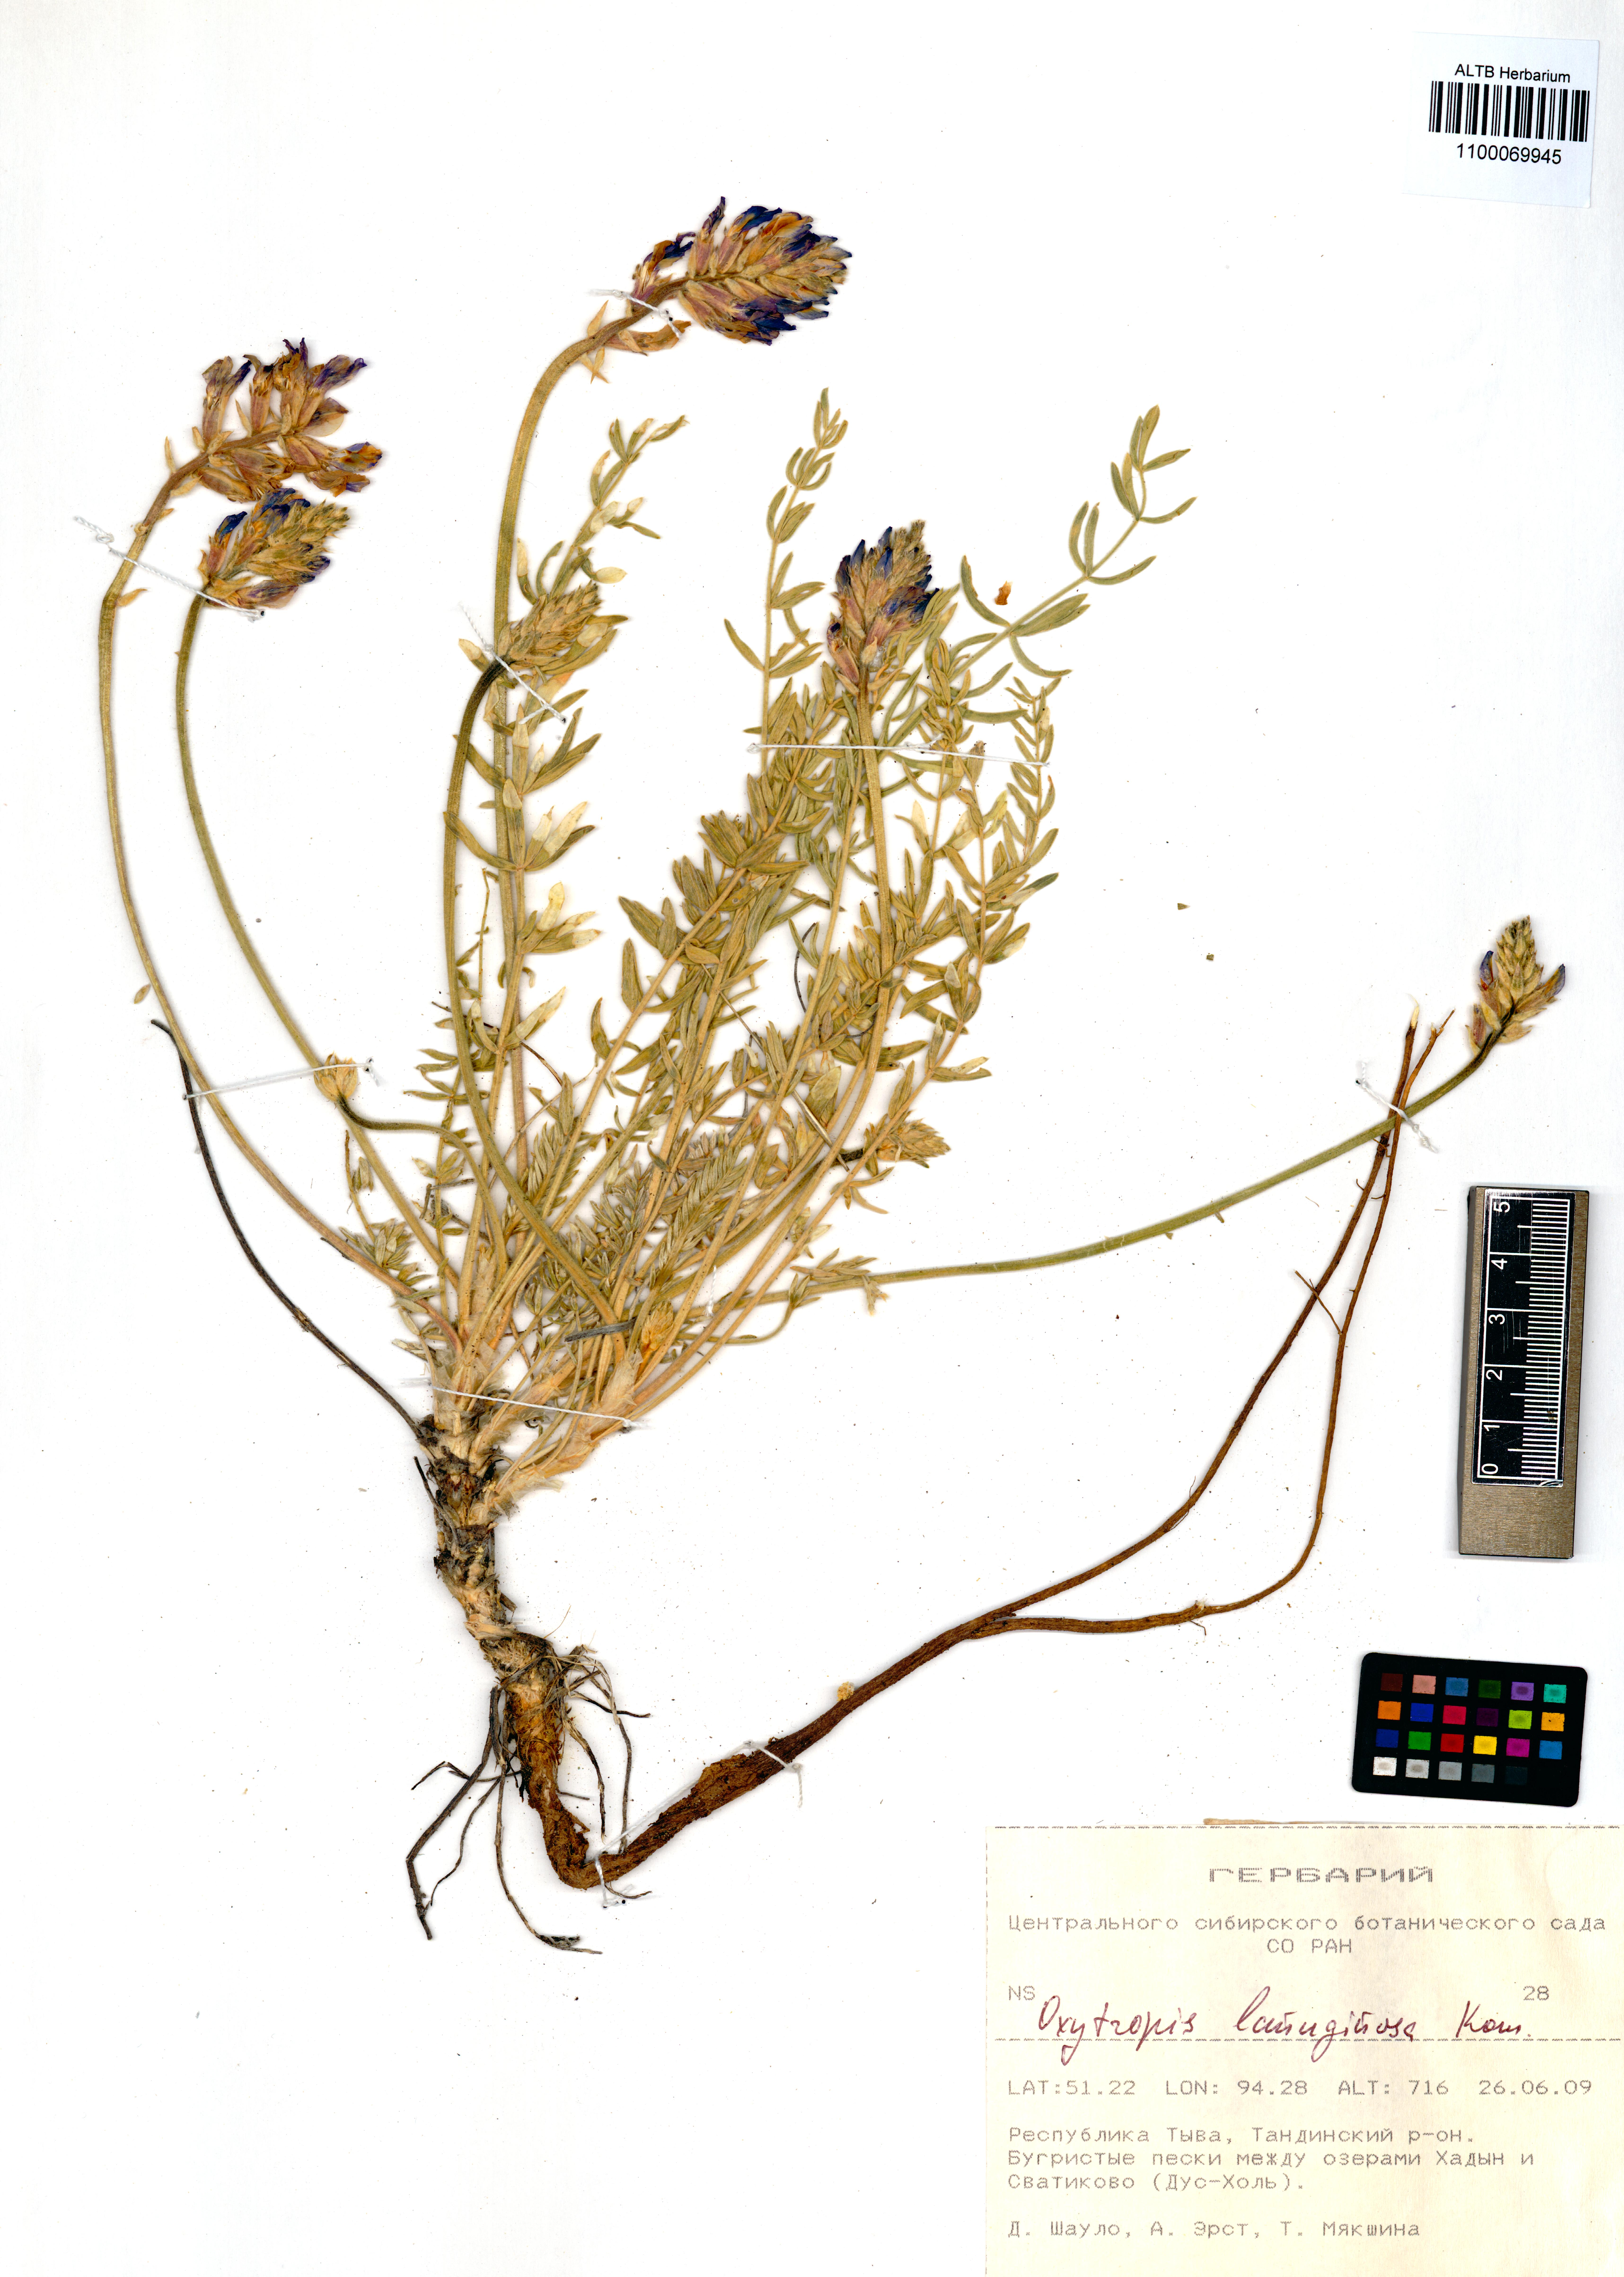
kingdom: Plantae
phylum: Tracheophyta
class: Magnoliopsida
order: Fabales
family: Fabaceae
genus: Oxytropis
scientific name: Oxytropis lanuginosa
